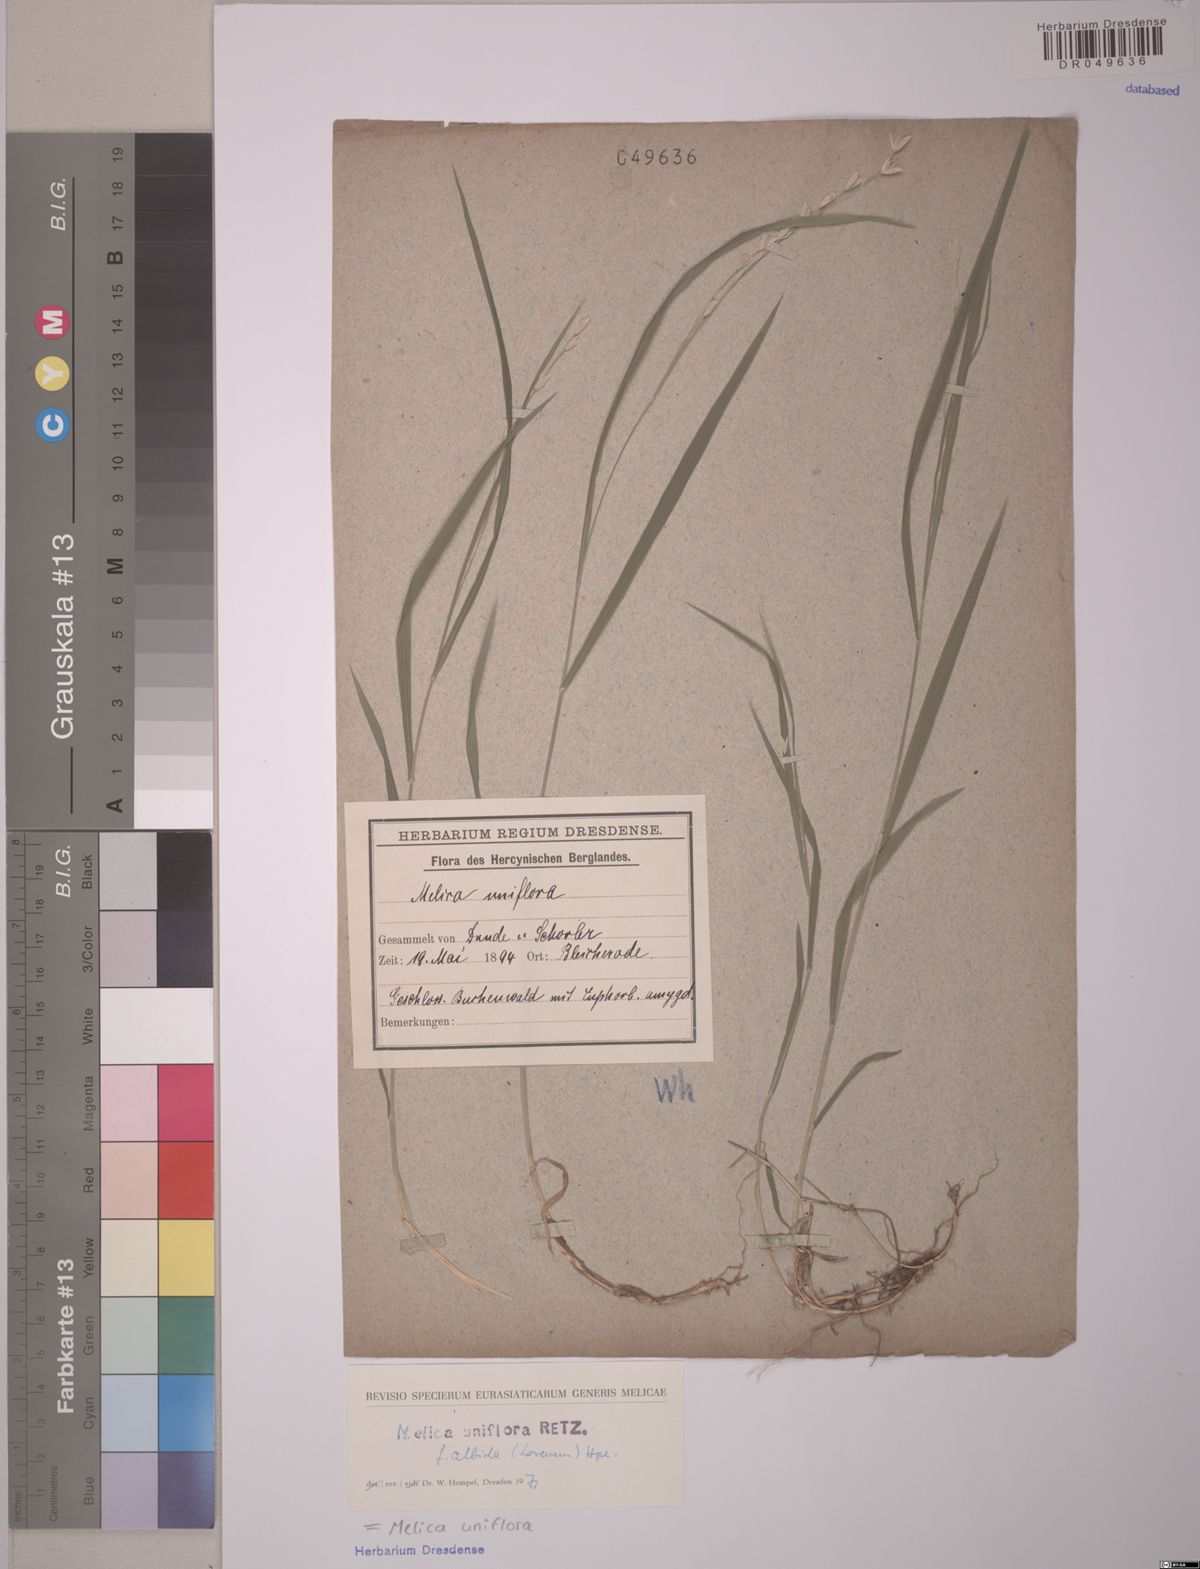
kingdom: Plantae
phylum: Tracheophyta
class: Liliopsida
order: Poales
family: Poaceae
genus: Melica
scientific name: Melica uniflora
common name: Wood melick
